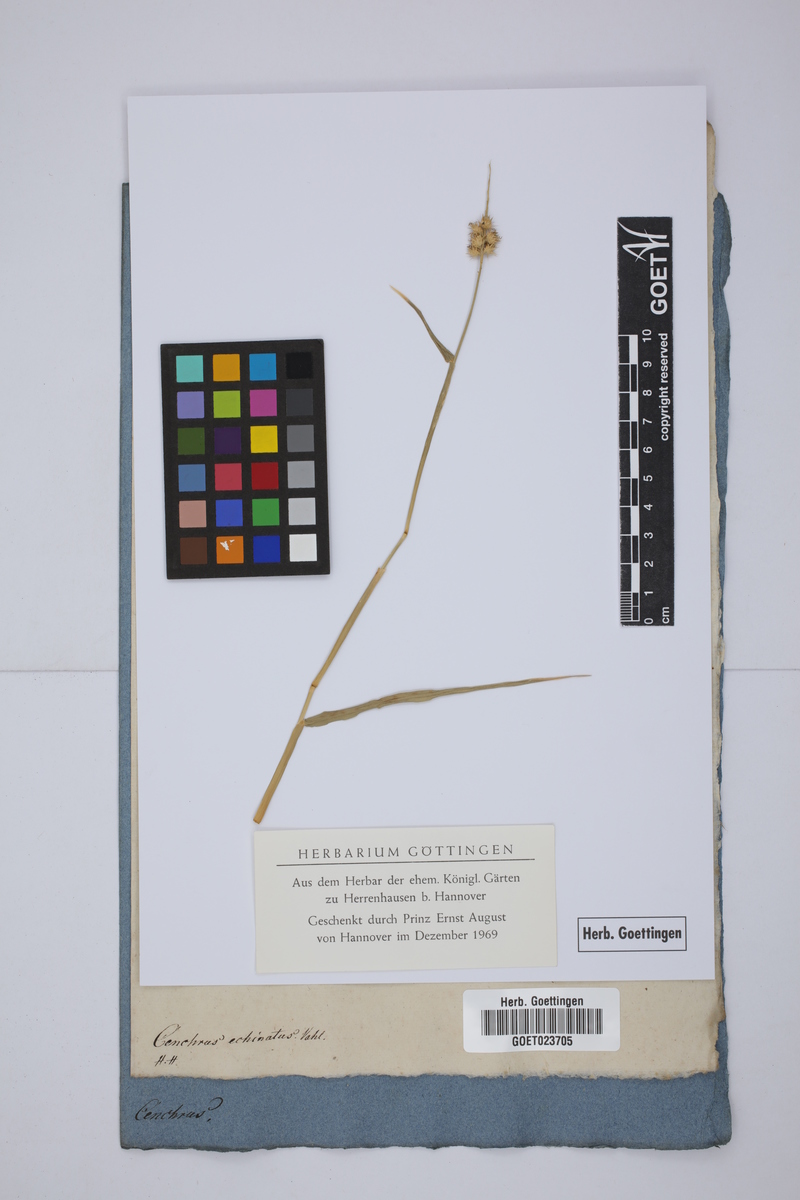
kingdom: Plantae
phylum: Tracheophyta
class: Liliopsida
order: Poales
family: Poaceae
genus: Cenchrus
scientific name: Cenchrus echinatus
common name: Southern sandbur
